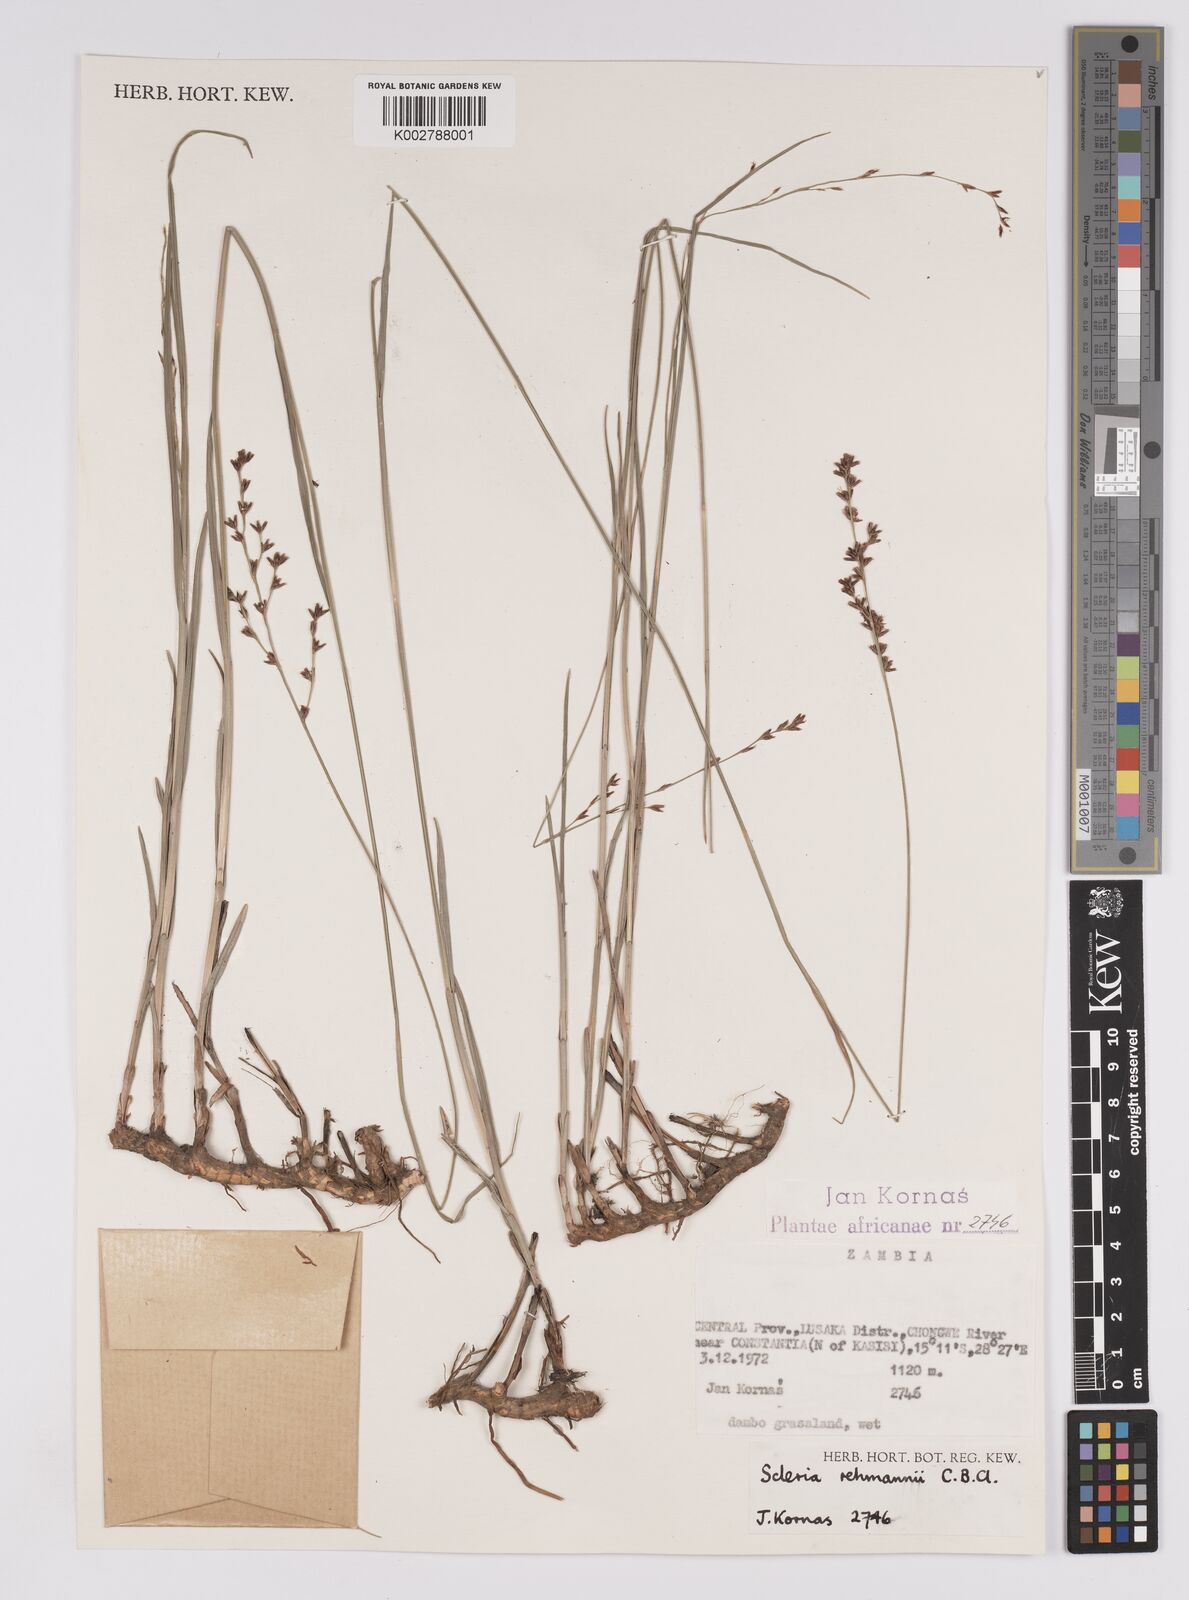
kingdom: Plantae
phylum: Tracheophyta
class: Liliopsida
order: Poales
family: Cyperaceae
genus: Scleria
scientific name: Scleria rehmannii
